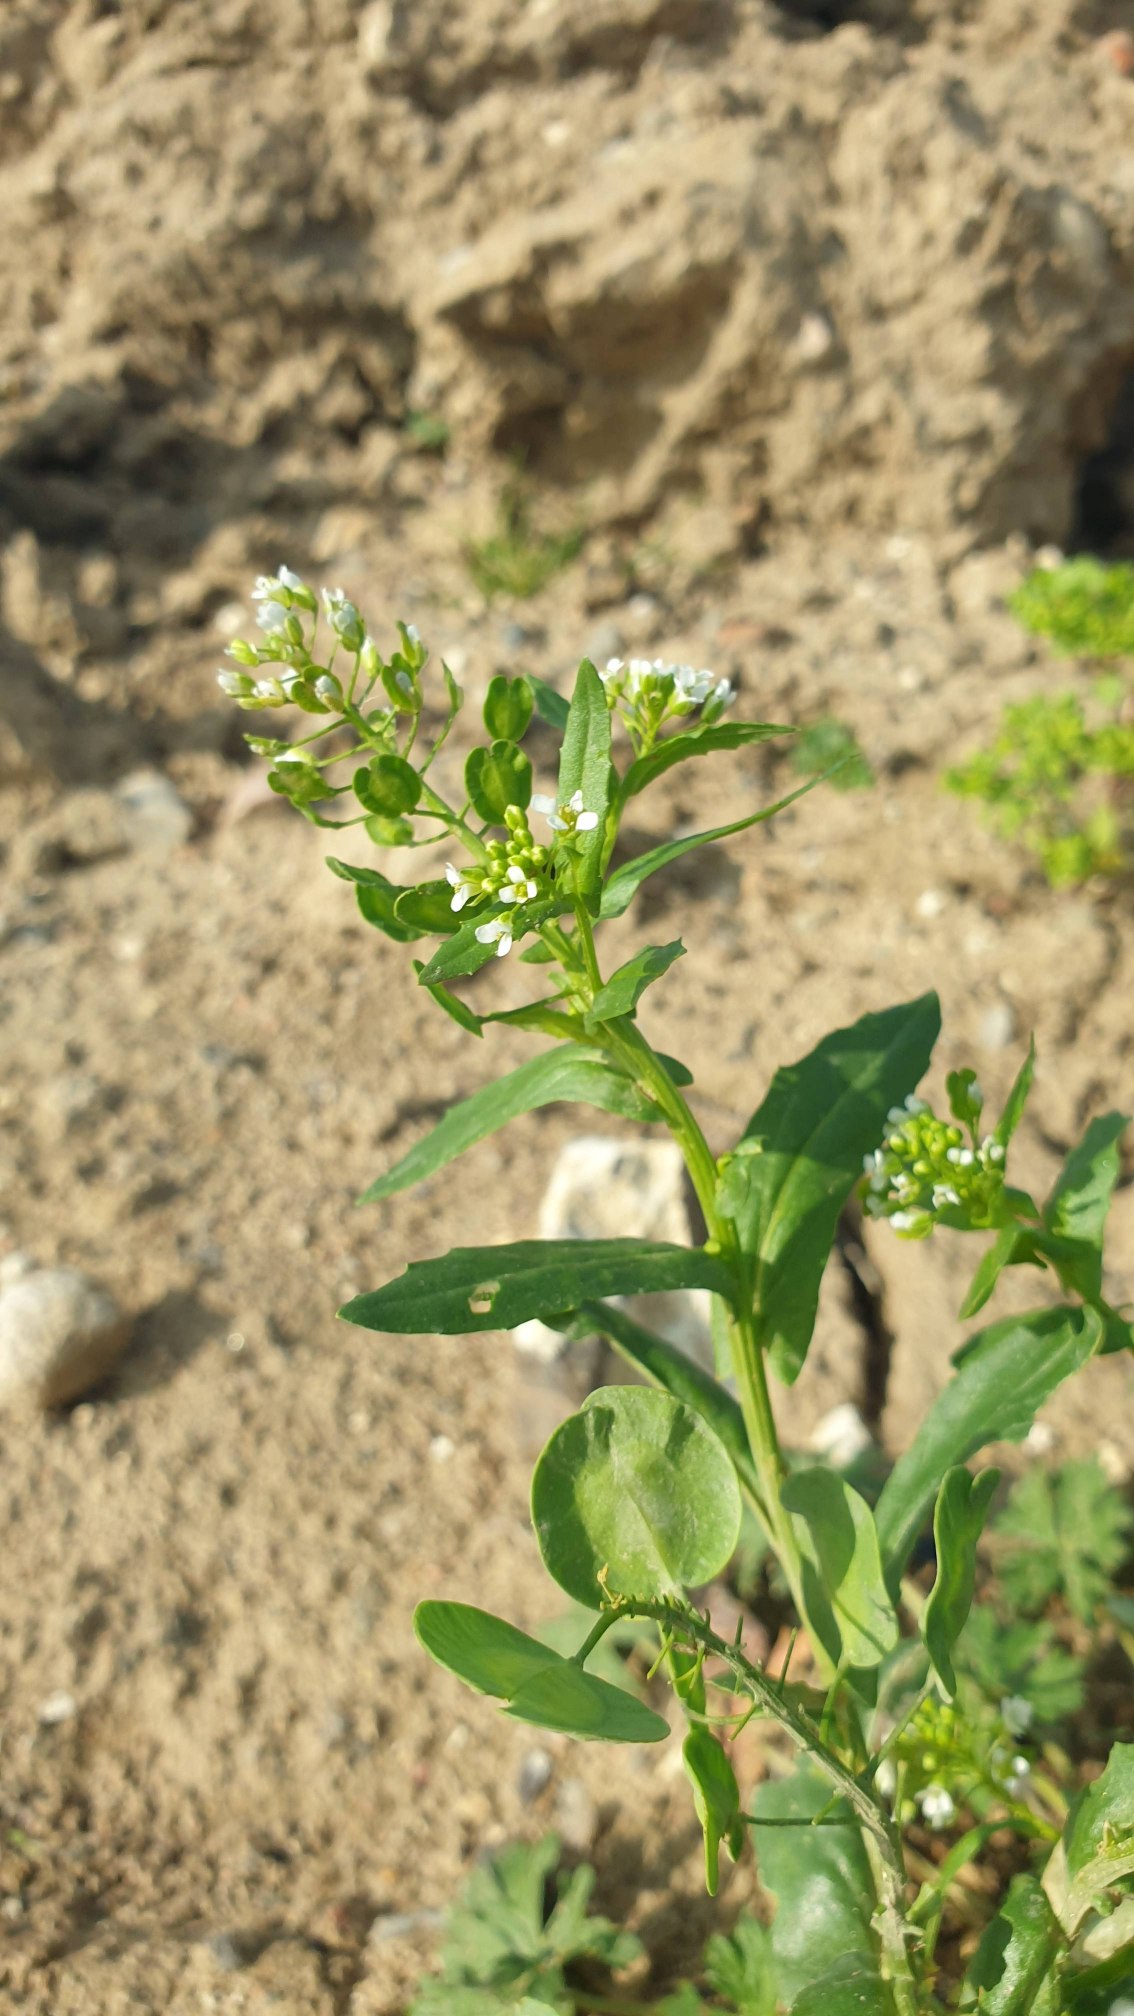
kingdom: Plantae
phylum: Tracheophyta
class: Magnoliopsida
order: Brassicales
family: Brassicaceae
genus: Thlaspi
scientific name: Thlaspi arvense
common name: Almindelig pengeurt
